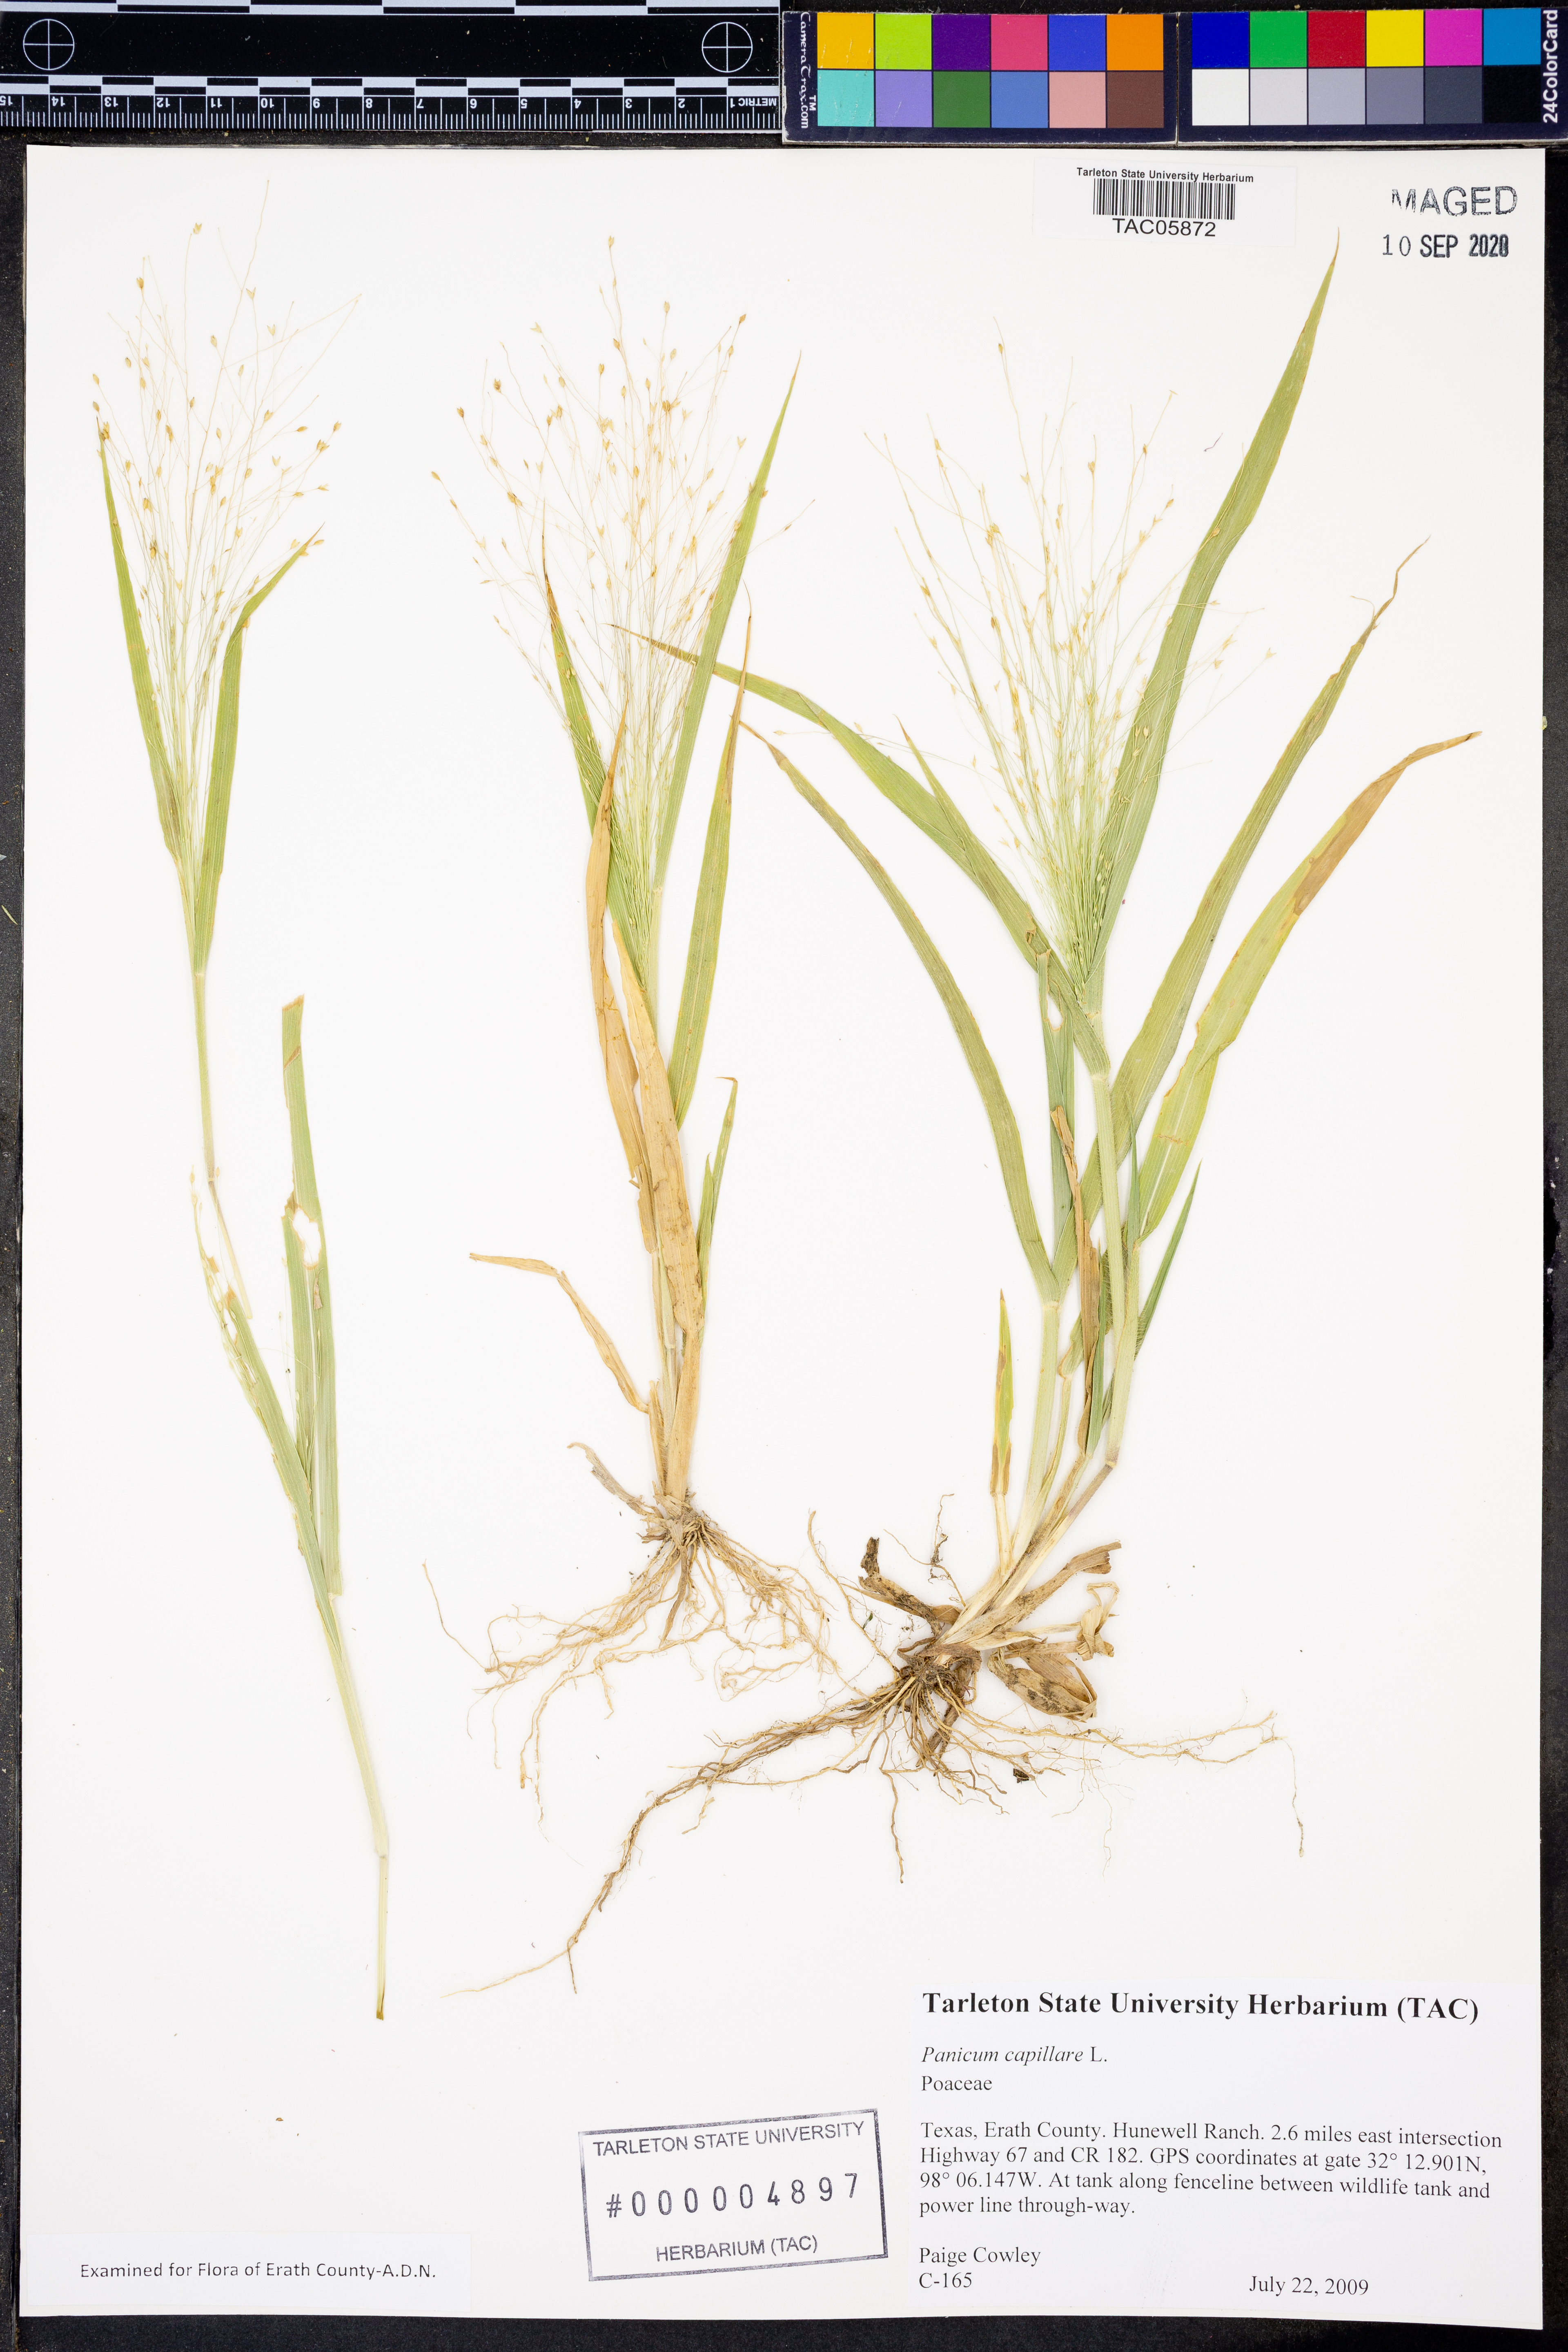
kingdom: Plantae
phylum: Tracheophyta
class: Liliopsida
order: Poales
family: Poaceae
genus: Dichanthelium
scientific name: Dichanthelium caparaoense
